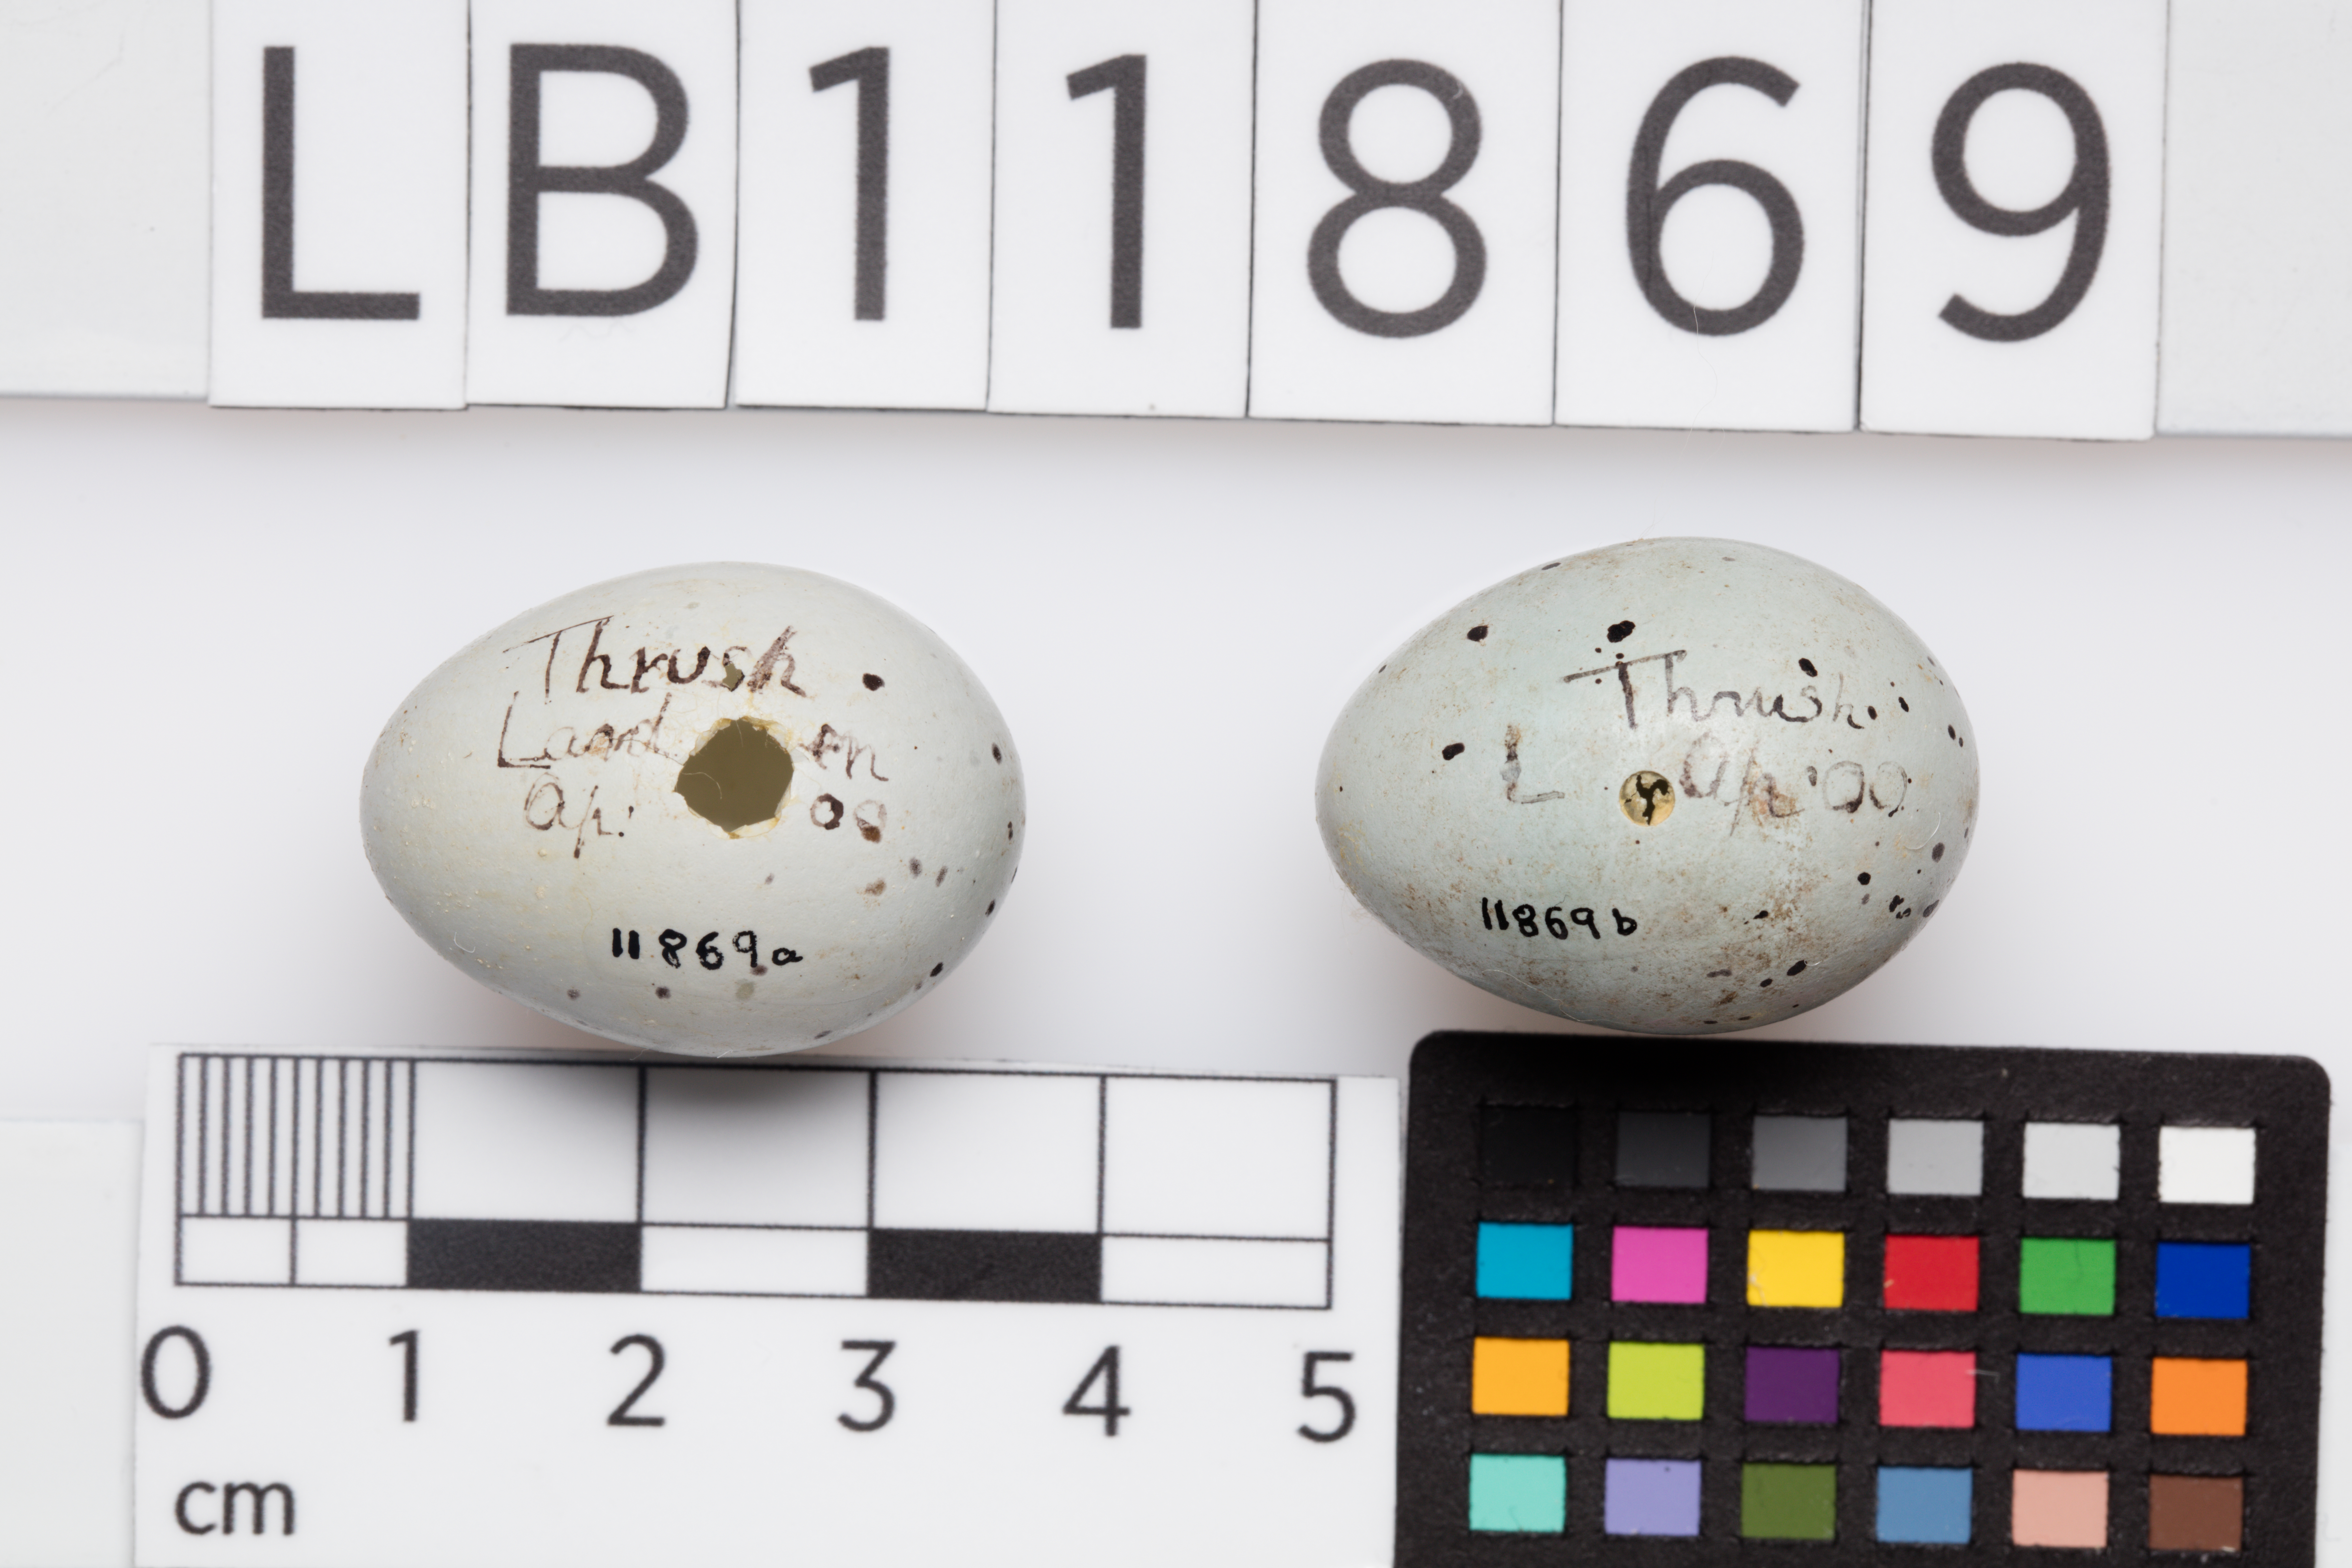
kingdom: Animalia
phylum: Chordata
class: Aves
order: Passeriformes
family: Turdidae
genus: Turdus
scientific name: Turdus philomelos
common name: Song thrush
